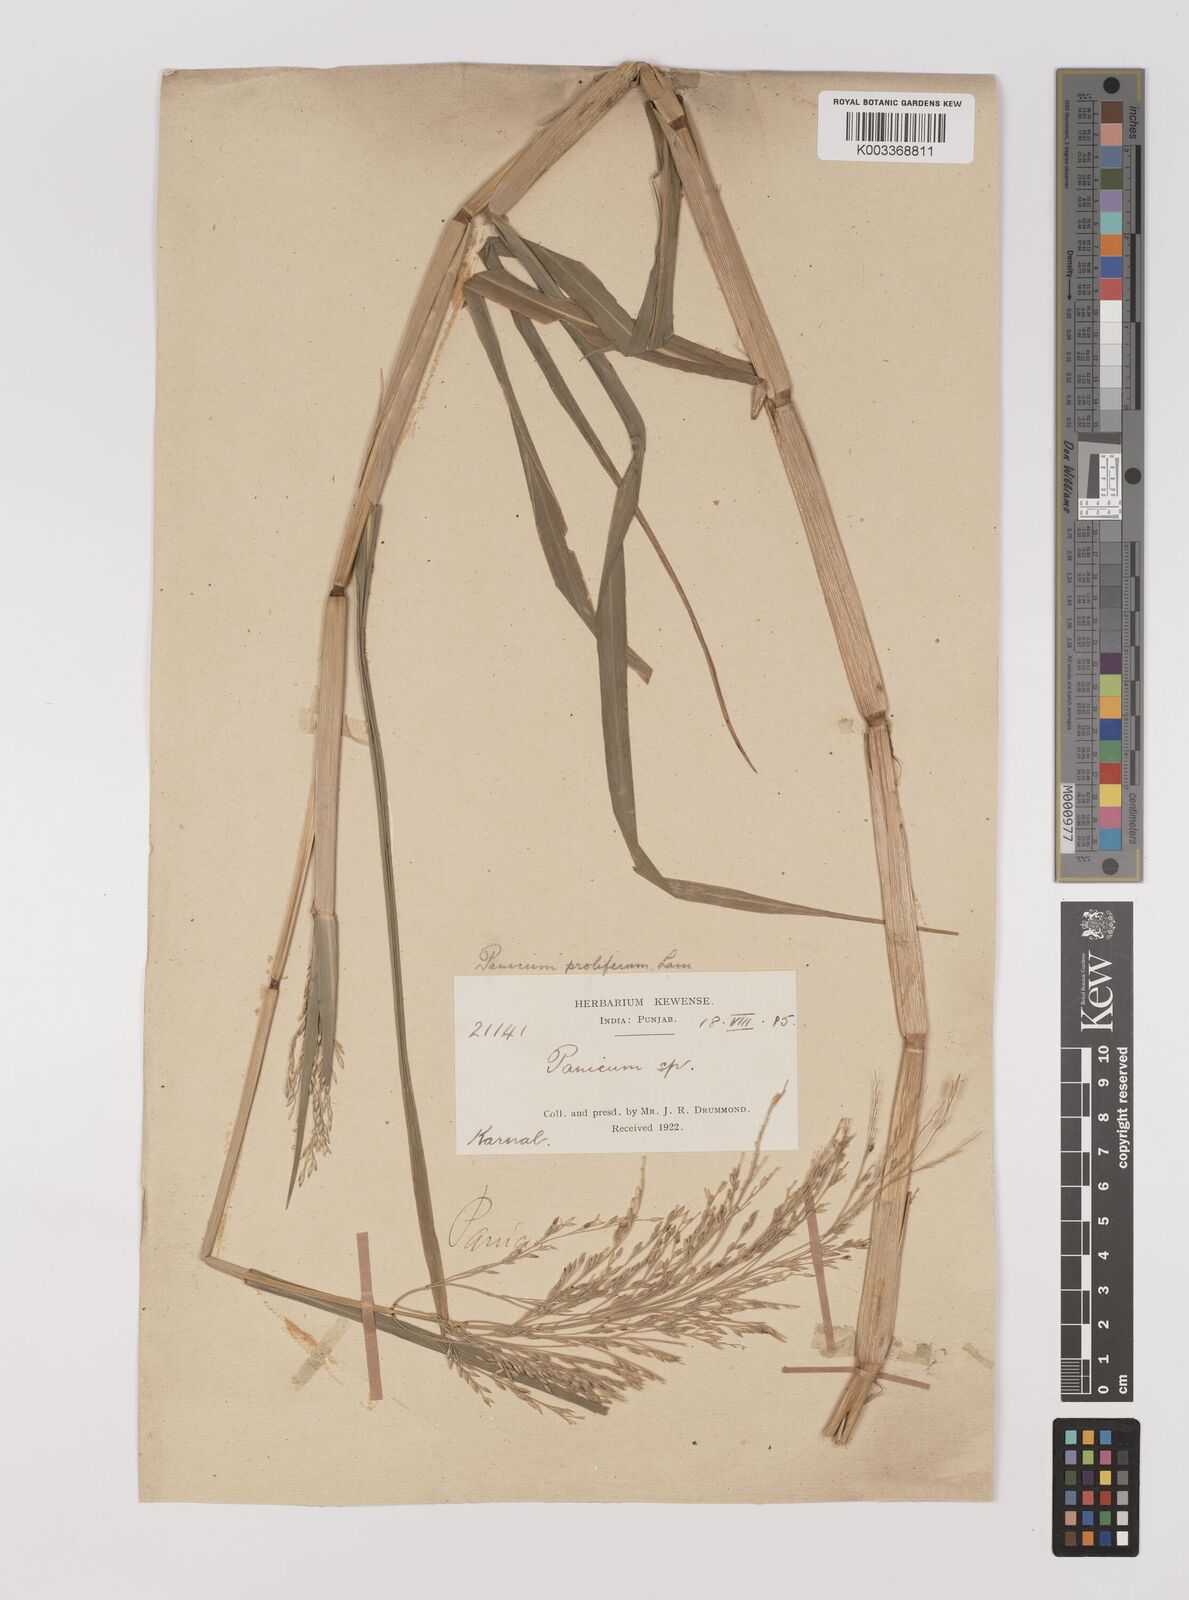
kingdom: Plantae
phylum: Tracheophyta
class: Liliopsida
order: Poales
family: Poaceae
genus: Louisiella
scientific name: Louisiella paludosa
